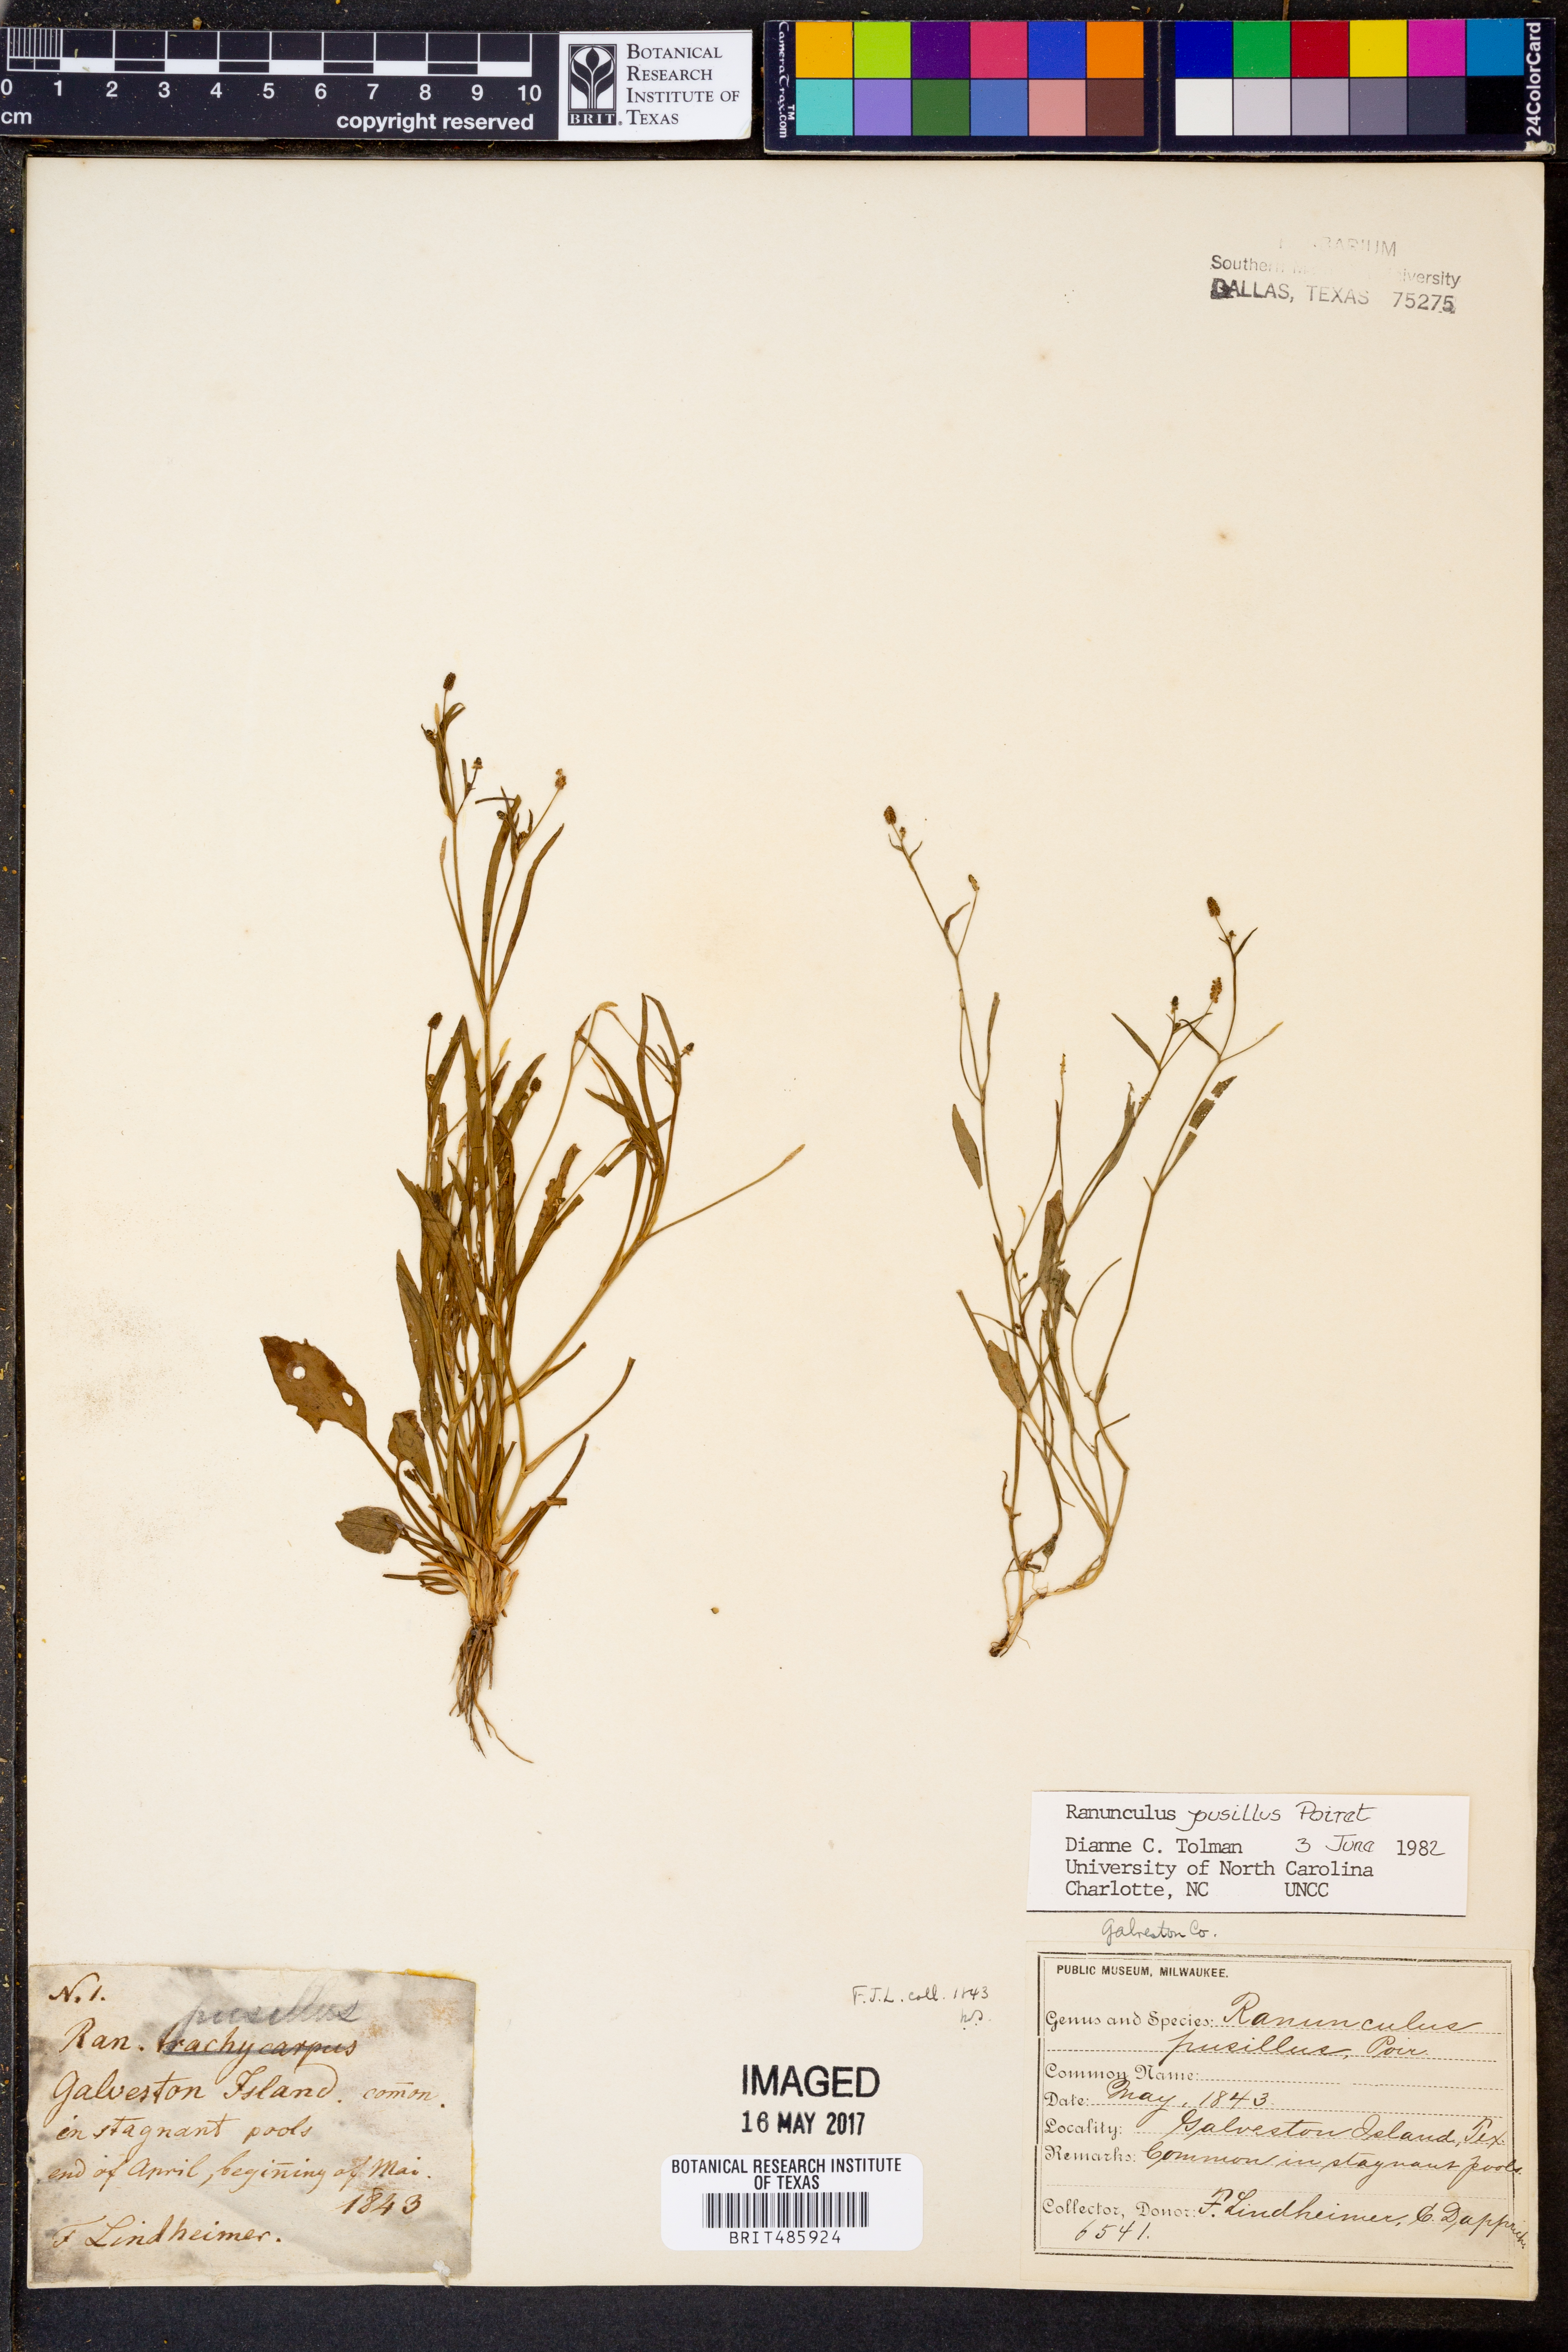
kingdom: Plantae
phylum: Tracheophyta
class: Magnoliopsida
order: Ranunculales
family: Ranunculaceae
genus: Ranunculus
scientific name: Ranunculus pusillus
